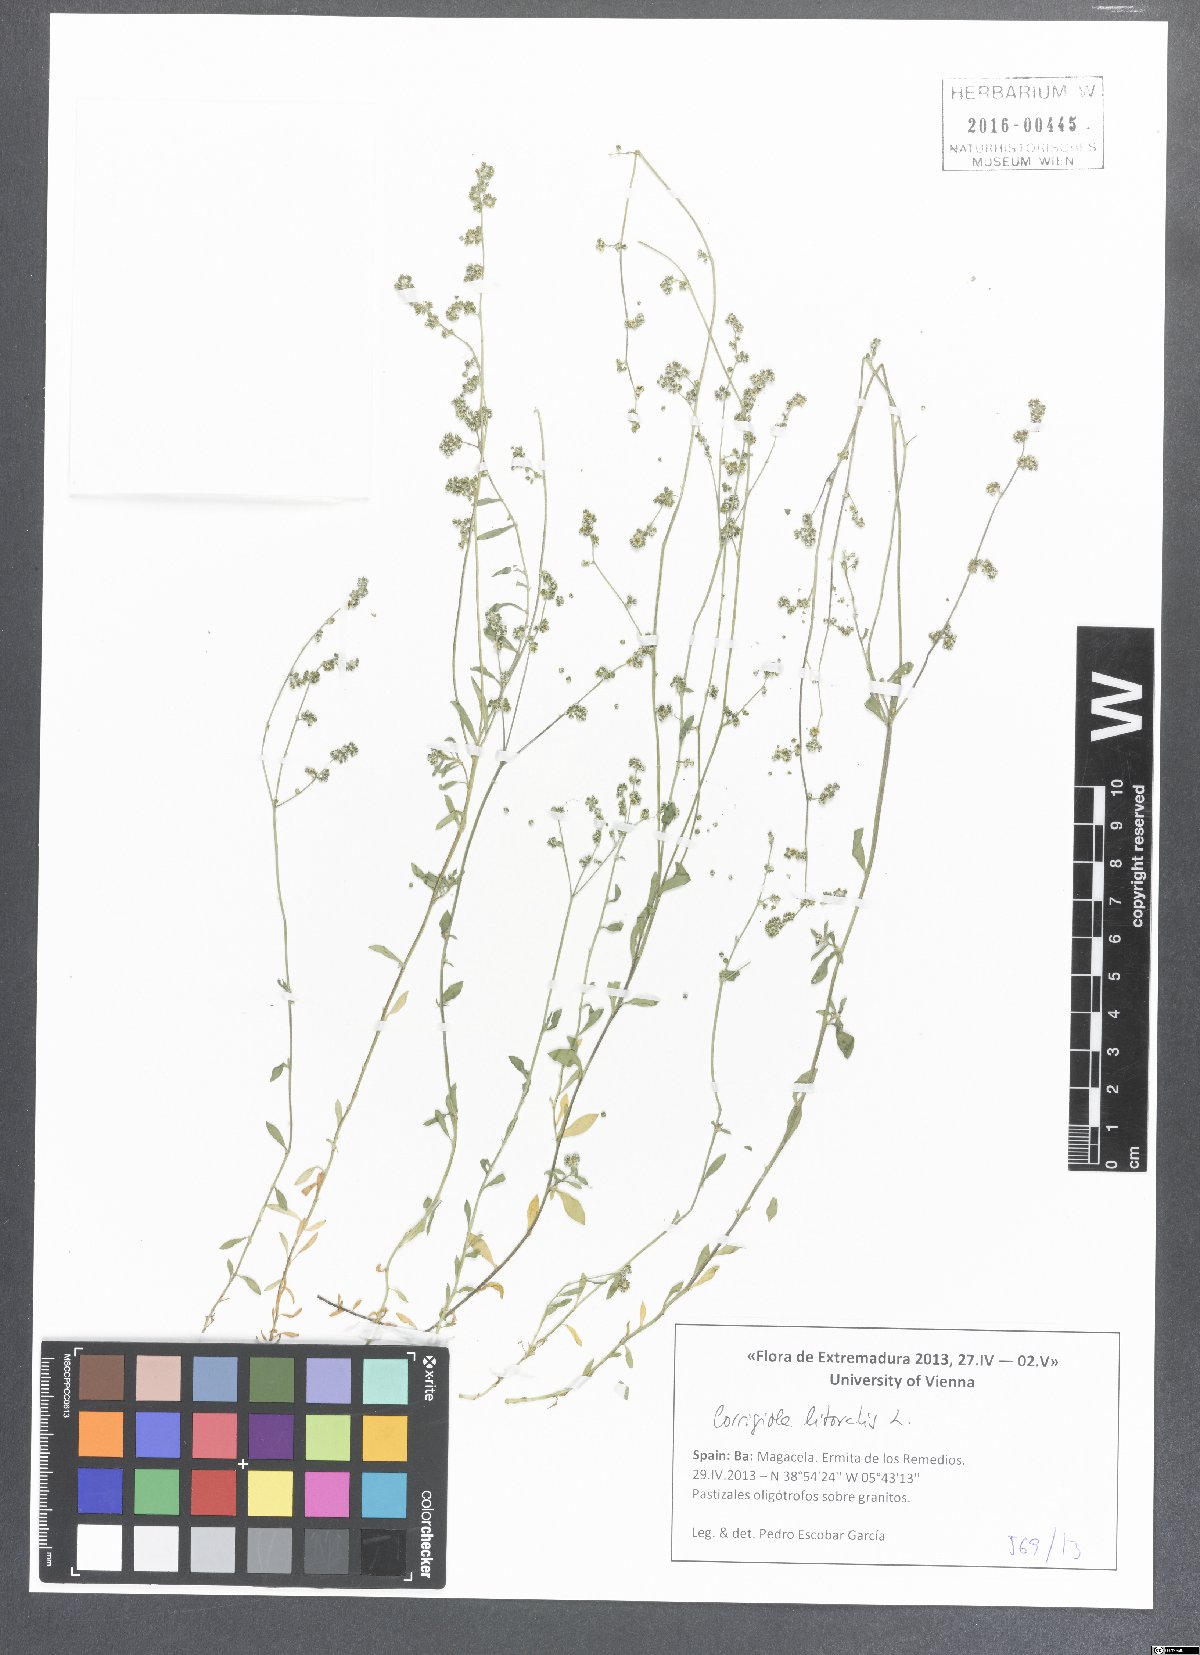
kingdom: Plantae
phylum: Tracheophyta
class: Magnoliopsida
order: Caryophyllales
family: Caryophyllaceae
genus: Corrigiola
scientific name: Corrigiola litoralis
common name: Strapwort
